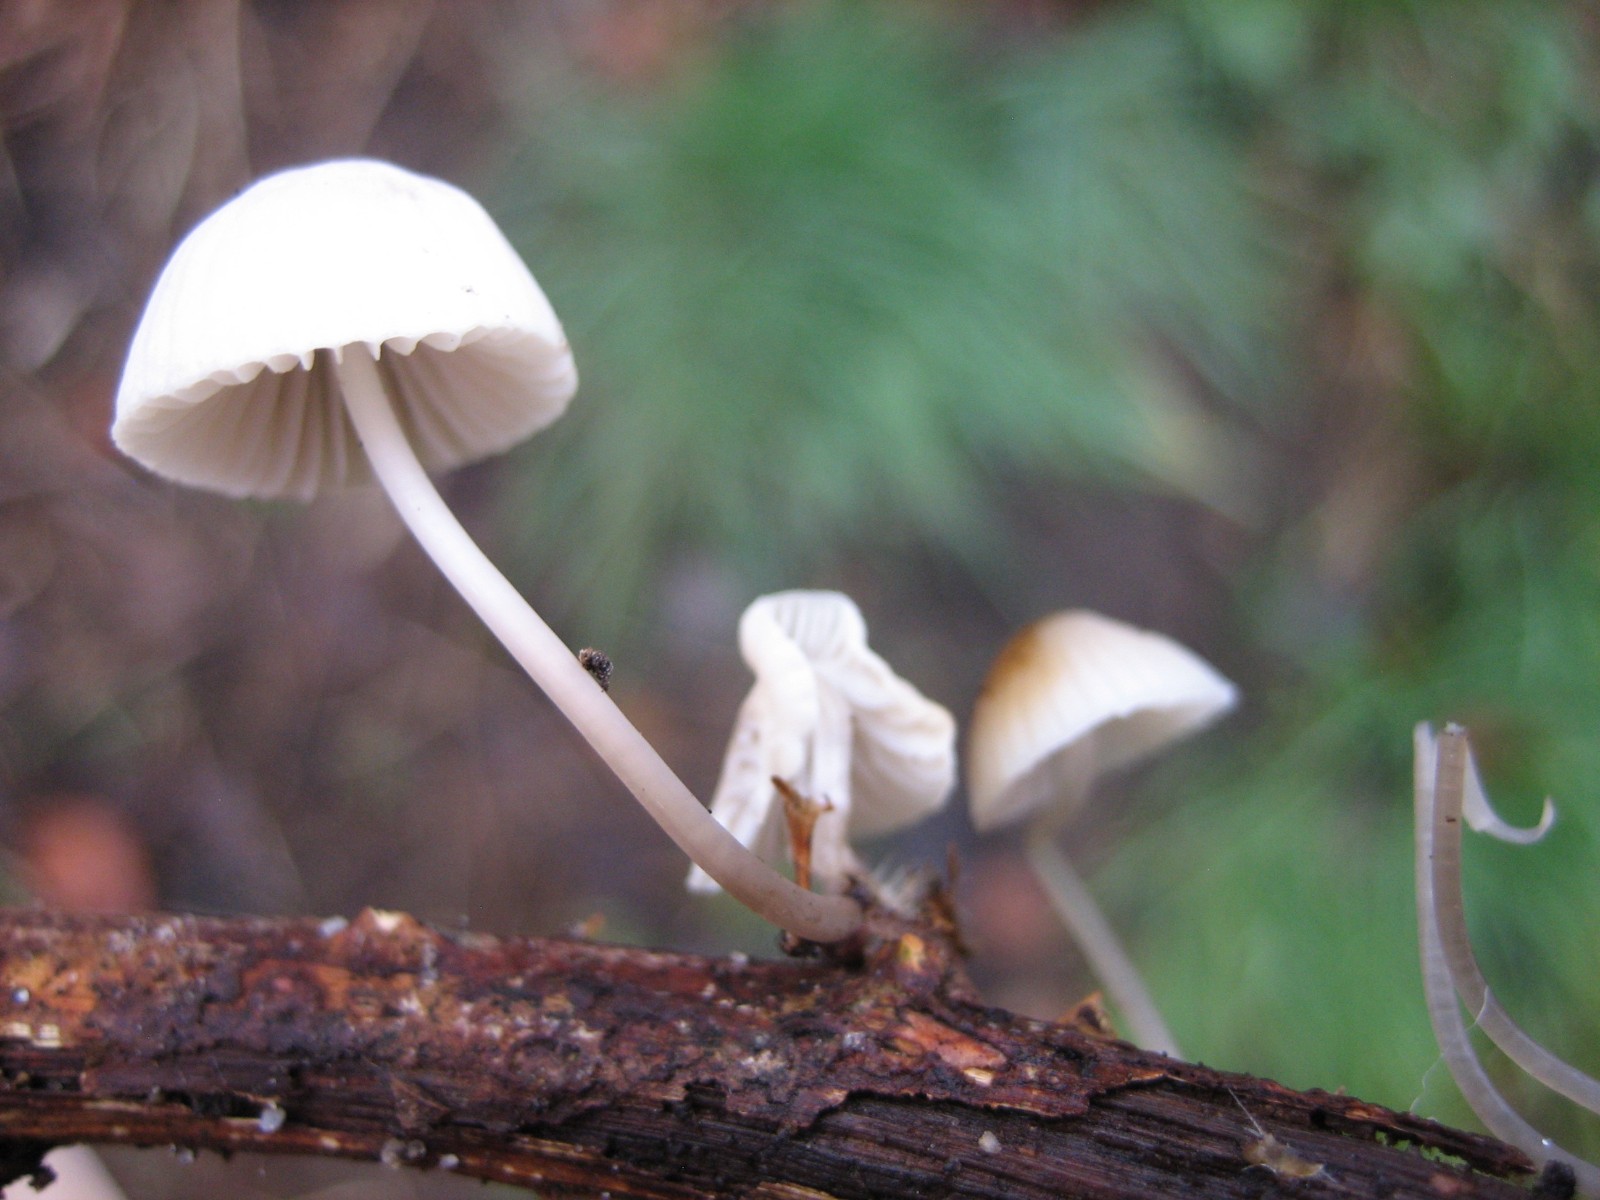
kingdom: Fungi
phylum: Basidiomycota
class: Agaricomycetes
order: Agaricales
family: Mycenaceae
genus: Mycena
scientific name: Mycena arcangeliana
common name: oliven-huesvamp
